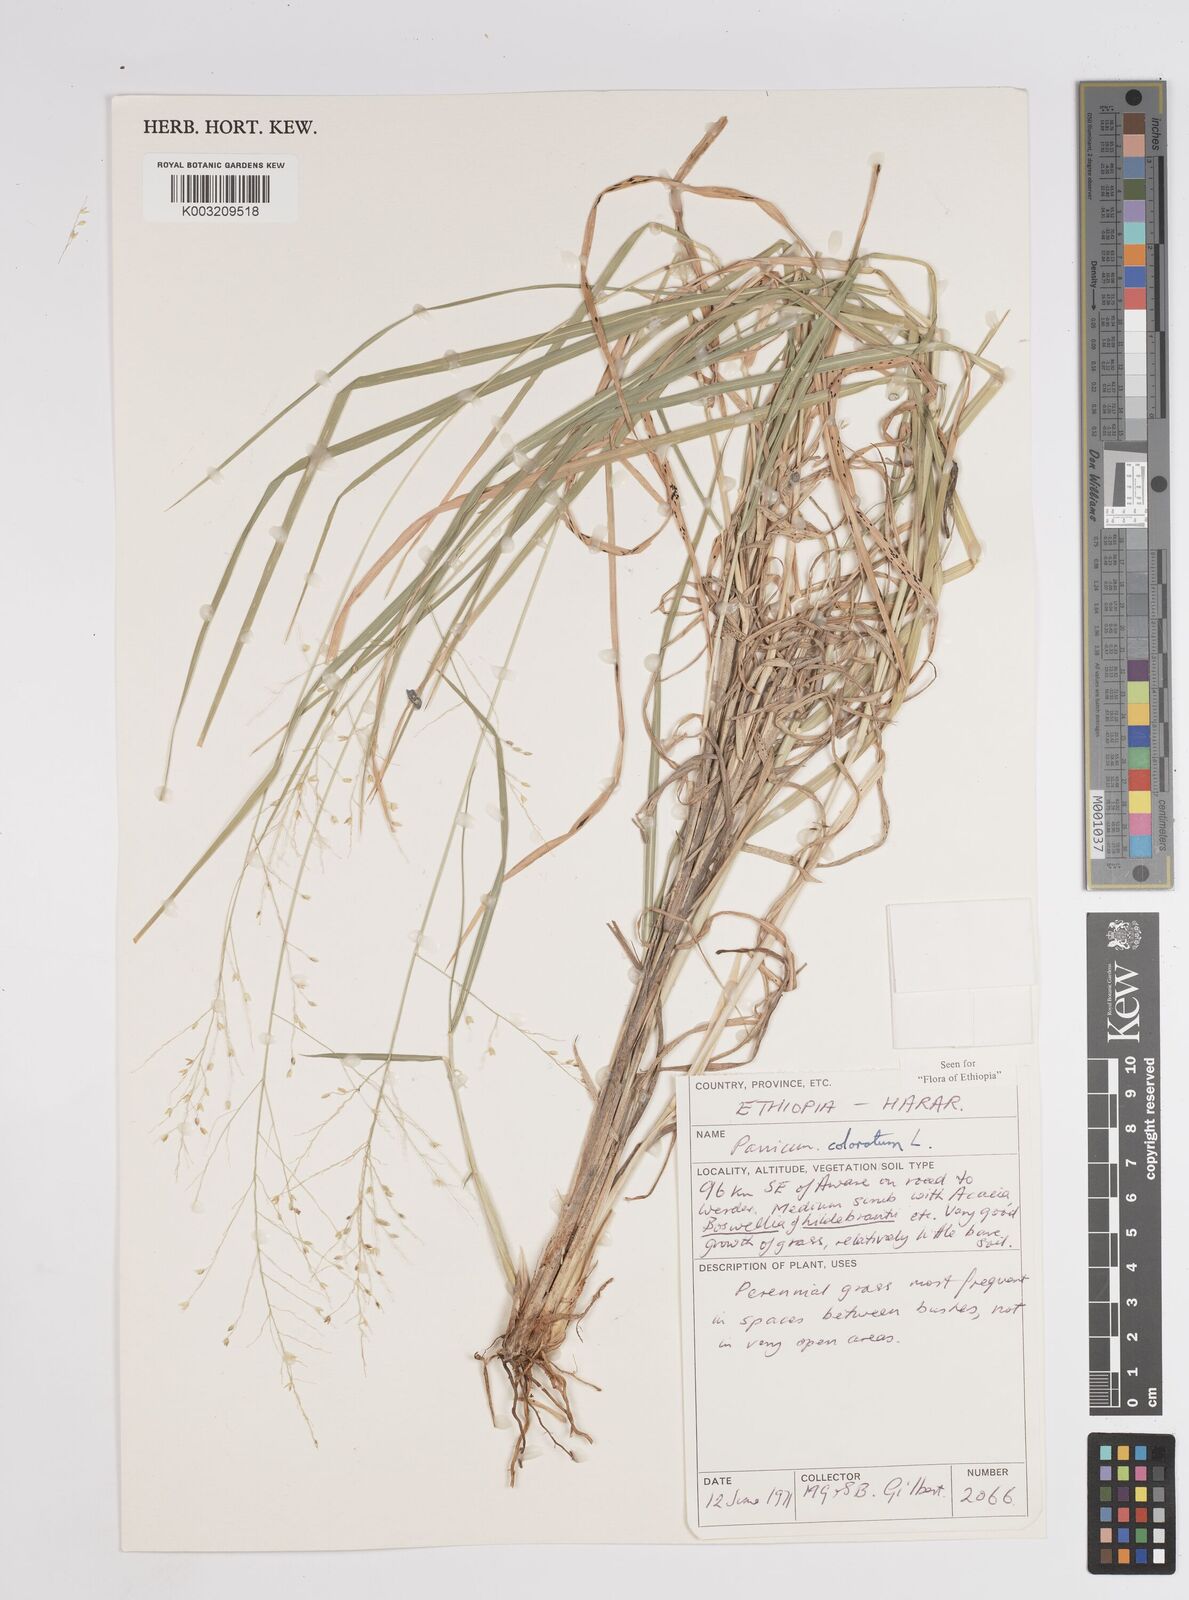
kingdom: Plantae
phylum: Tracheophyta
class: Liliopsida
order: Poales
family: Poaceae
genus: Panicum
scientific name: Panicum coloratum
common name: Kleingrass
